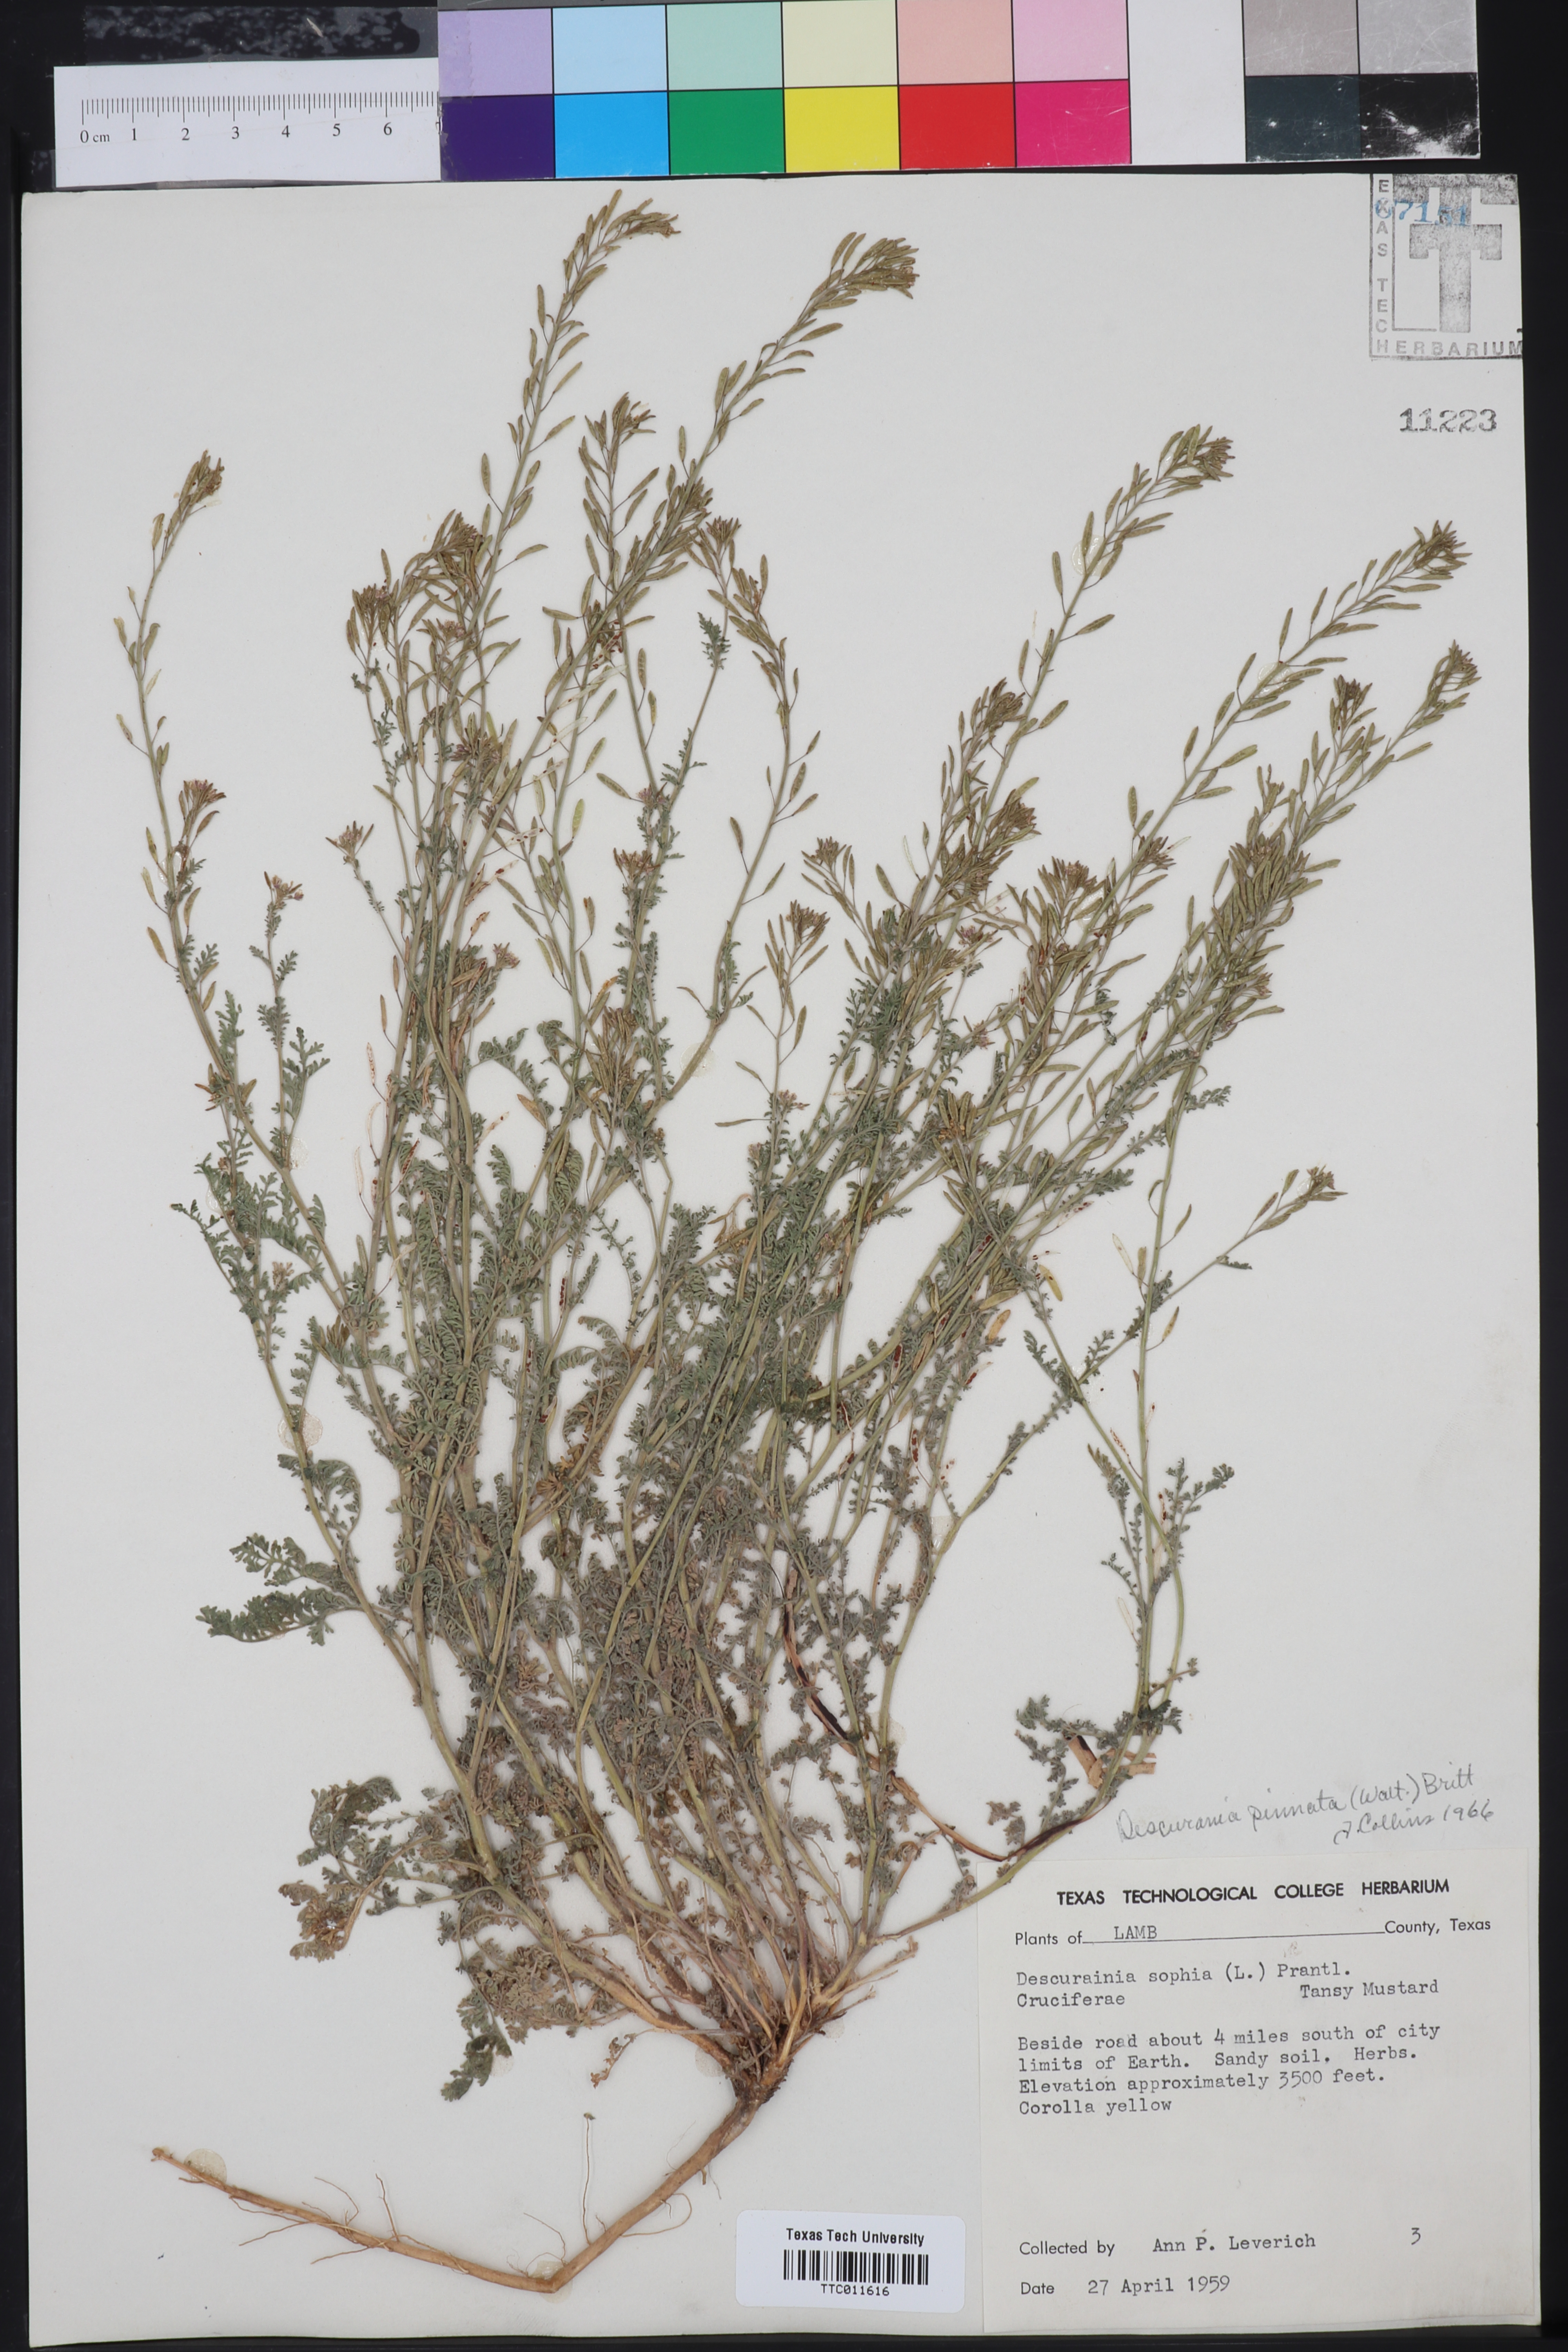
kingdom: Plantae
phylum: Tracheophyta
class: Magnoliopsida
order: Brassicales
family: Brassicaceae
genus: Descurainia
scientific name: Descurainia sophia
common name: Flixweed
